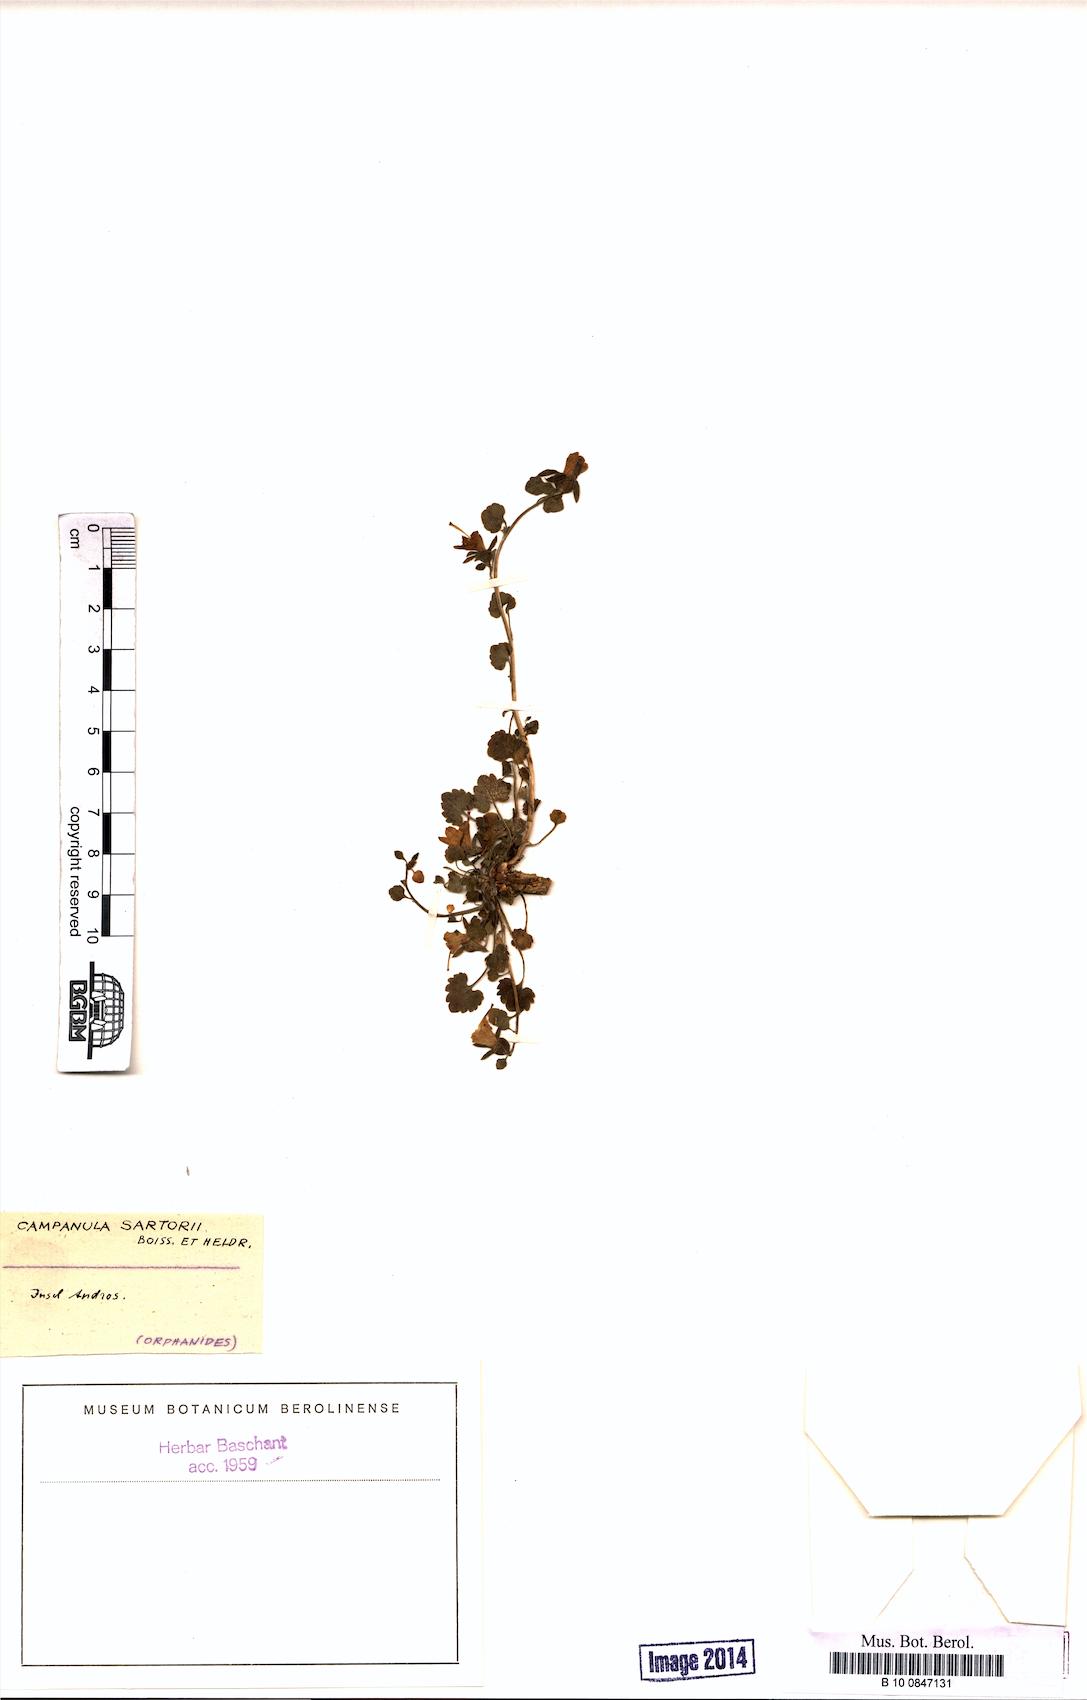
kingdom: Plantae
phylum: Tracheophyta
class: Magnoliopsida
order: Asterales
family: Campanulaceae
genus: Campanula
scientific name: Campanula sartorii
